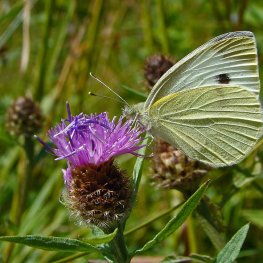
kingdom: Animalia
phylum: Arthropoda
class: Insecta
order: Lepidoptera
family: Pieridae
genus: Pieris
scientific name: Pieris rapae
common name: Cabbage White
